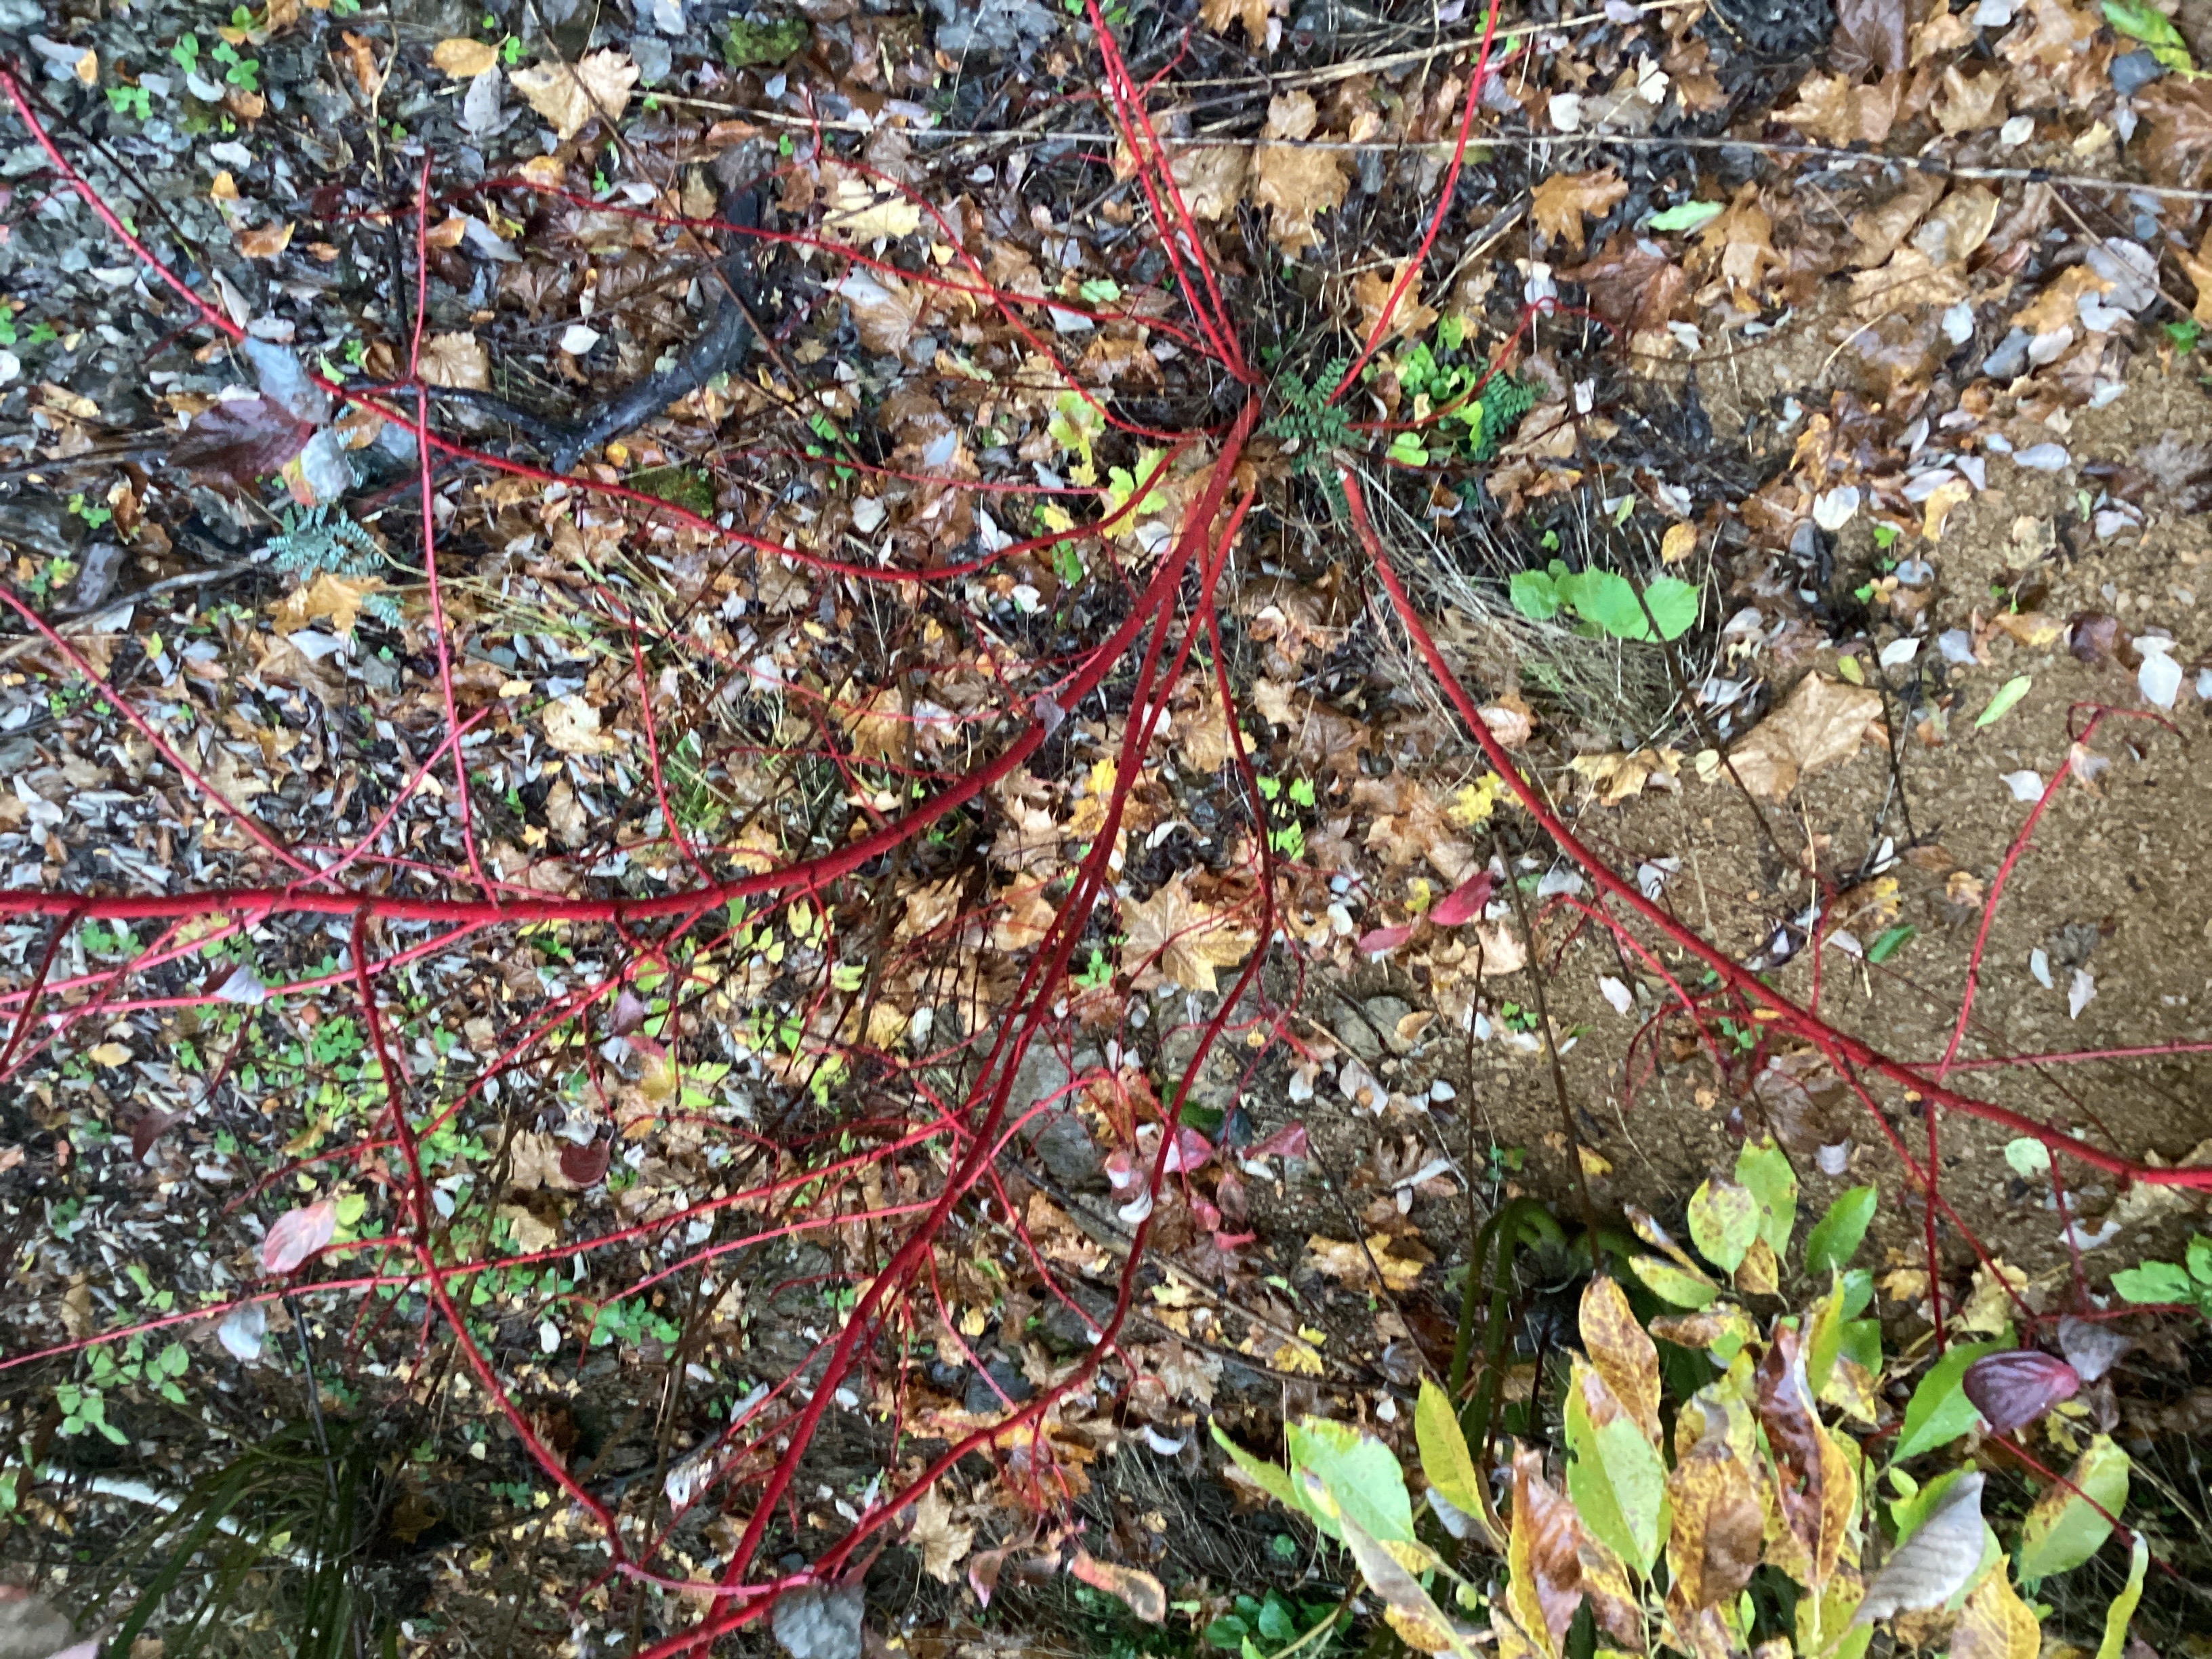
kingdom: Plantae
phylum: Tracheophyta
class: Magnoliopsida
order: Cornales
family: Cornaceae
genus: Cornus
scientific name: Cornus alba
